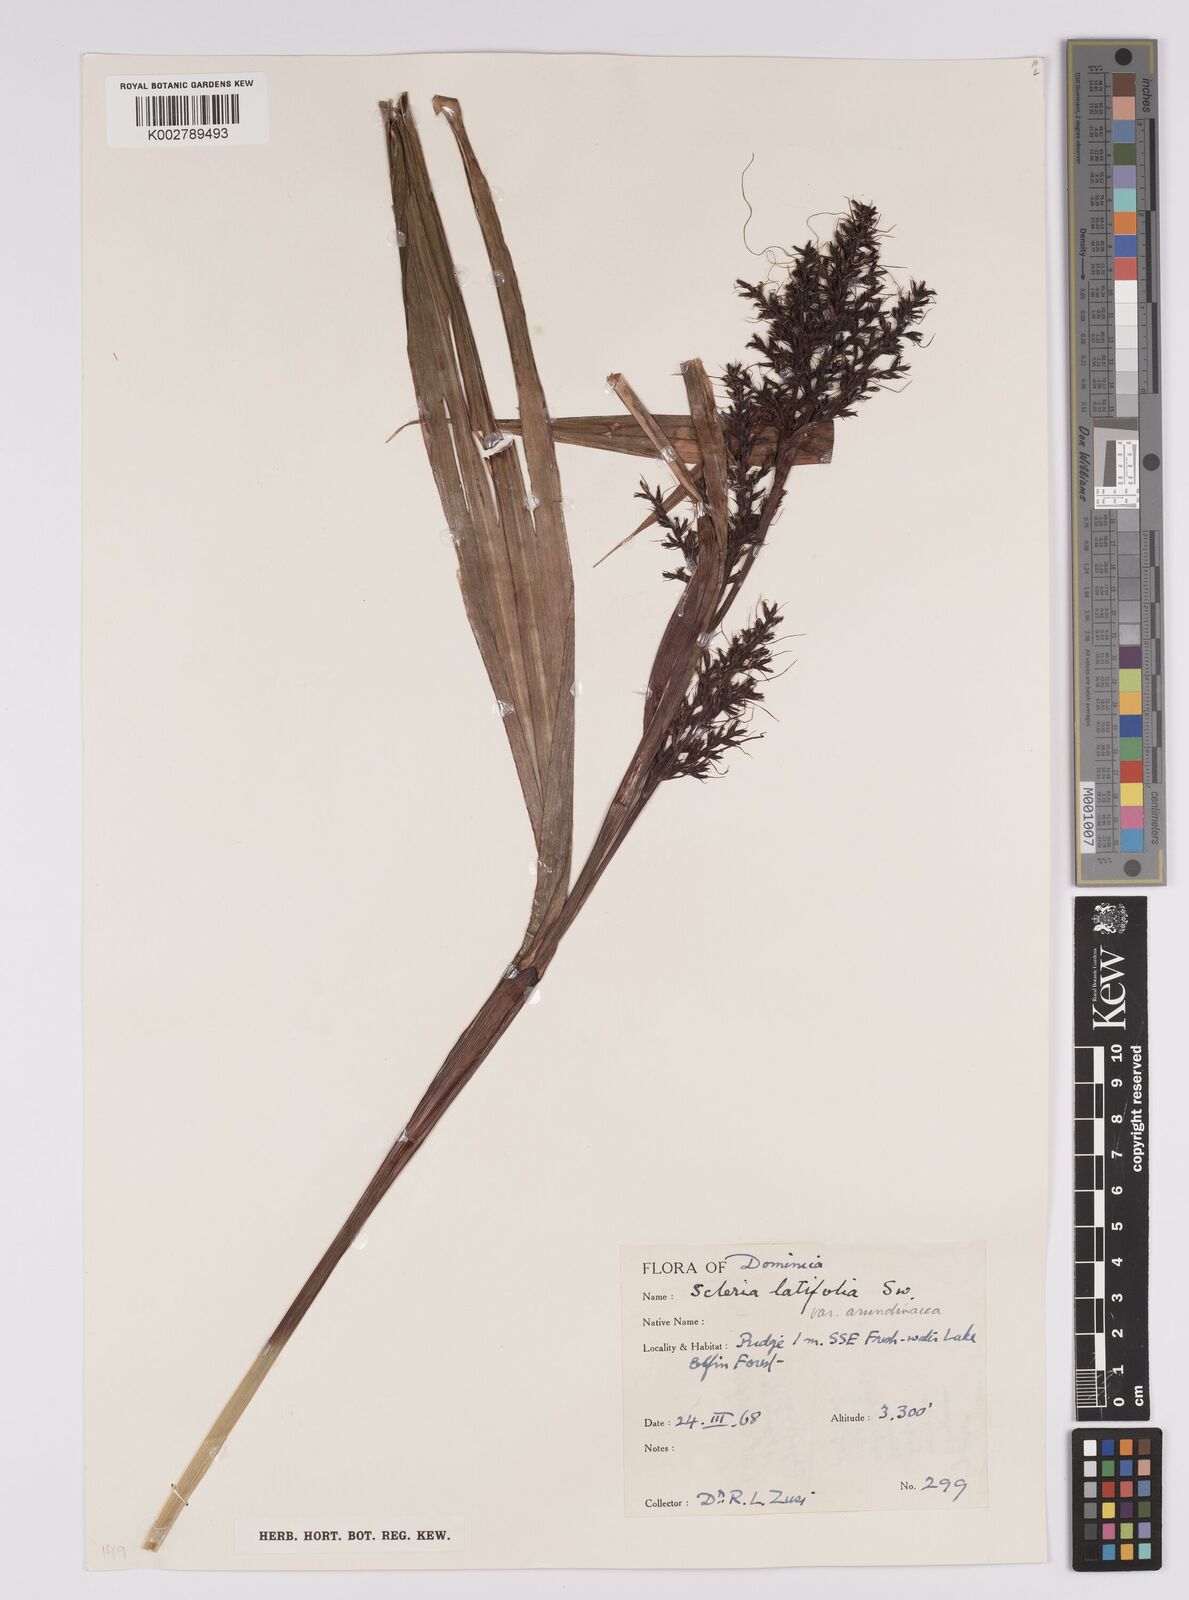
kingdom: Plantae
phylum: Tracheophyta
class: Liliopsida
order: Poales
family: Cyperaceae
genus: Scleria
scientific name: Scleria latifolia
